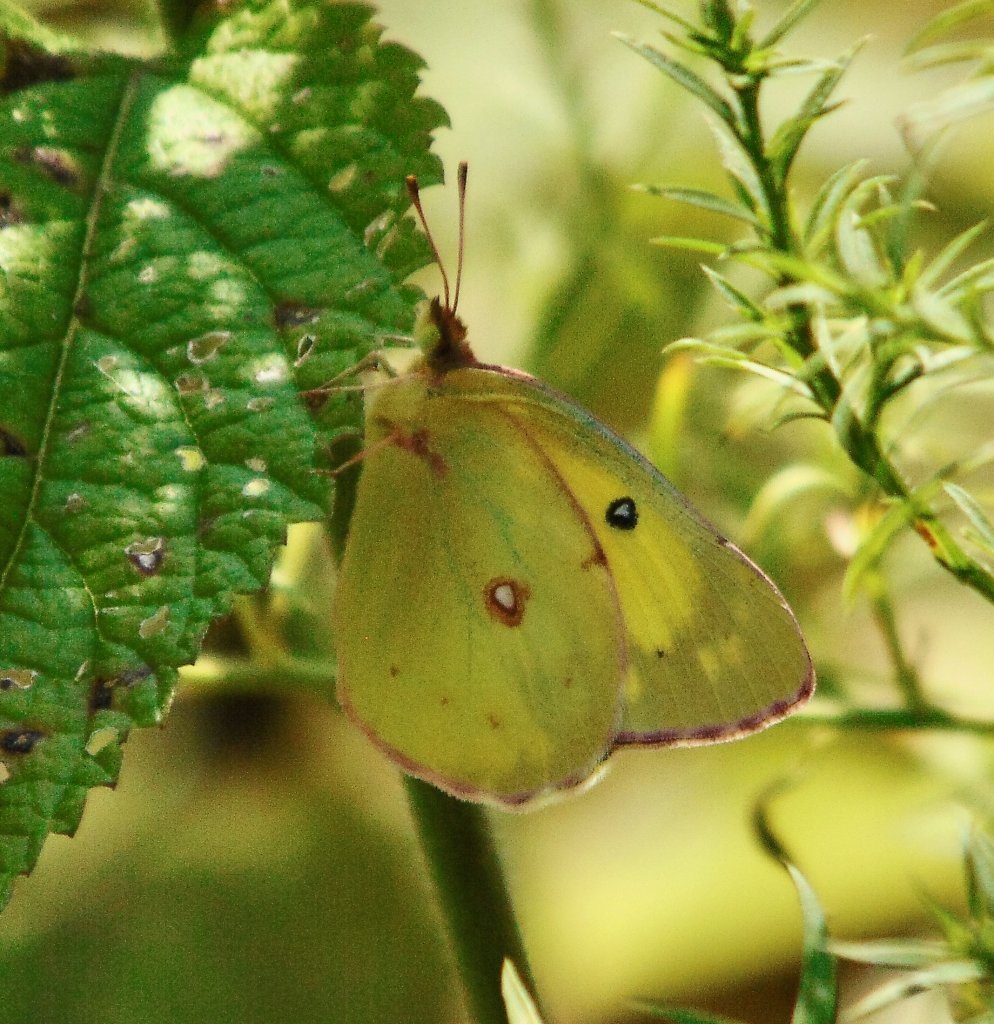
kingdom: Animalia
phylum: Arthropoda
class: Insecta
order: Lepidoptera
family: Pieridae
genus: Colias
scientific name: Colias philodice
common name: Clouded Sulphur
